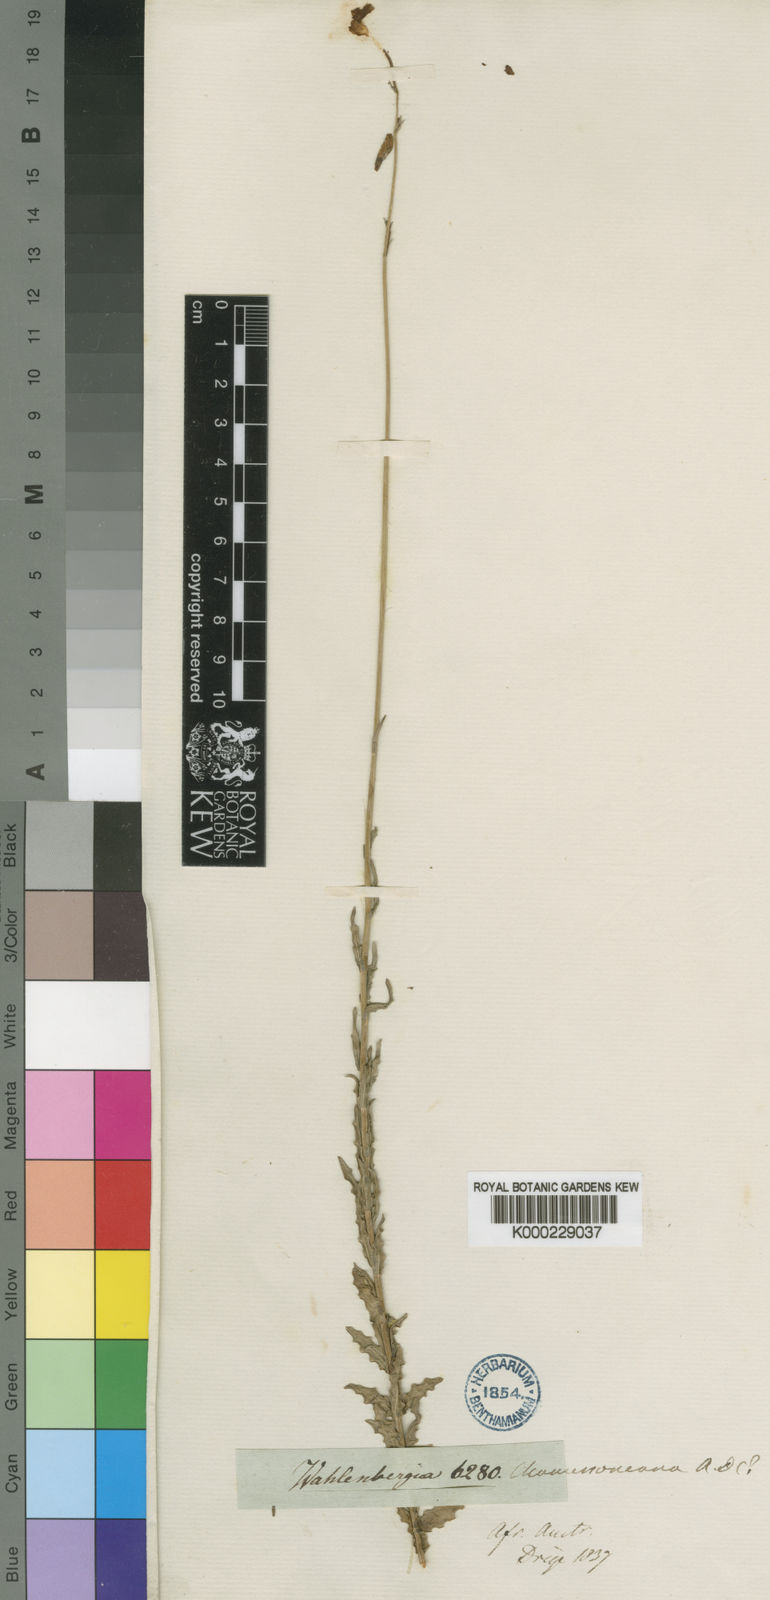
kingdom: Plantae
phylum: Tracheophyta
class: Magnoliopsida
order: Asterales
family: Campanulaceae
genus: Wahlenbergia
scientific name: Wahlenbergia undulata
